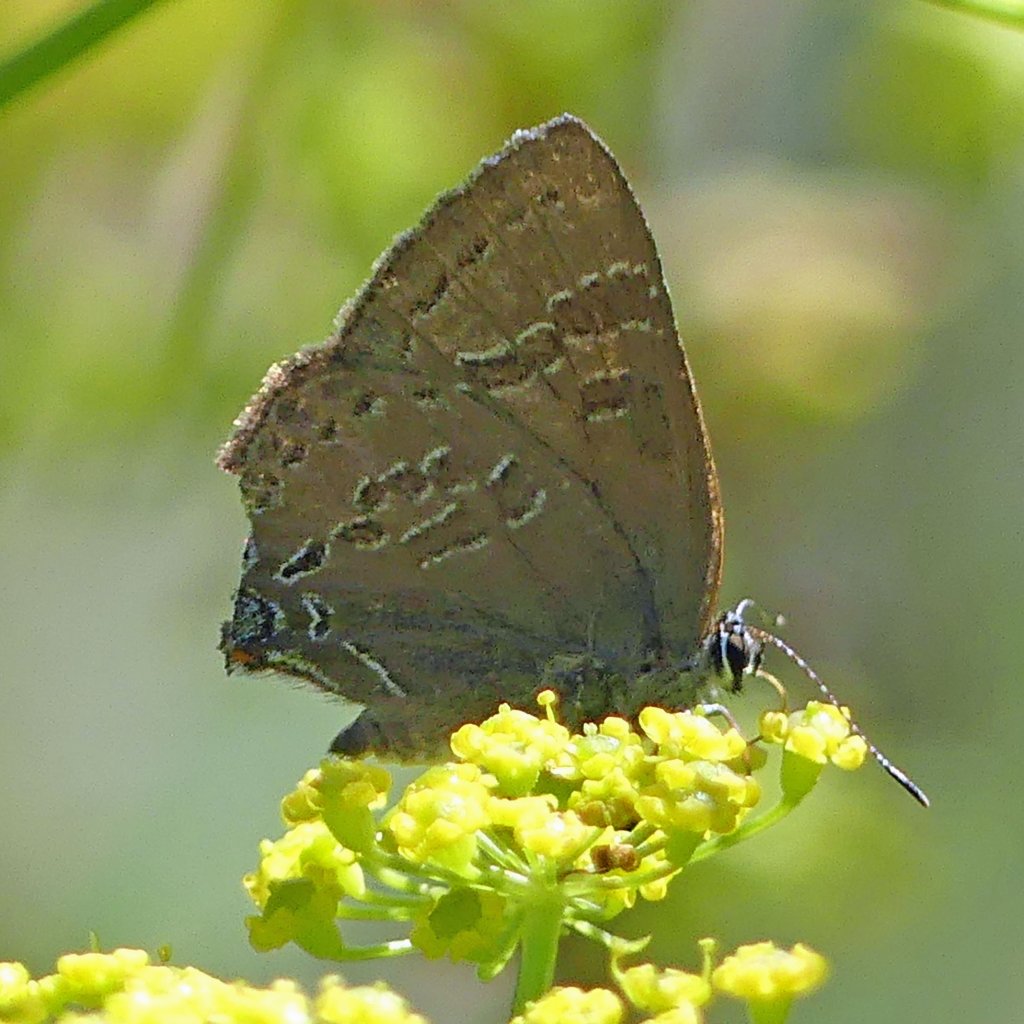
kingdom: Animalia
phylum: Arthropoda
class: Insecta
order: Lepidoptera
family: Lycaenidae
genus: Strymon
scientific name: Strymon caryaevorus
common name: Hickory Hairstreak
